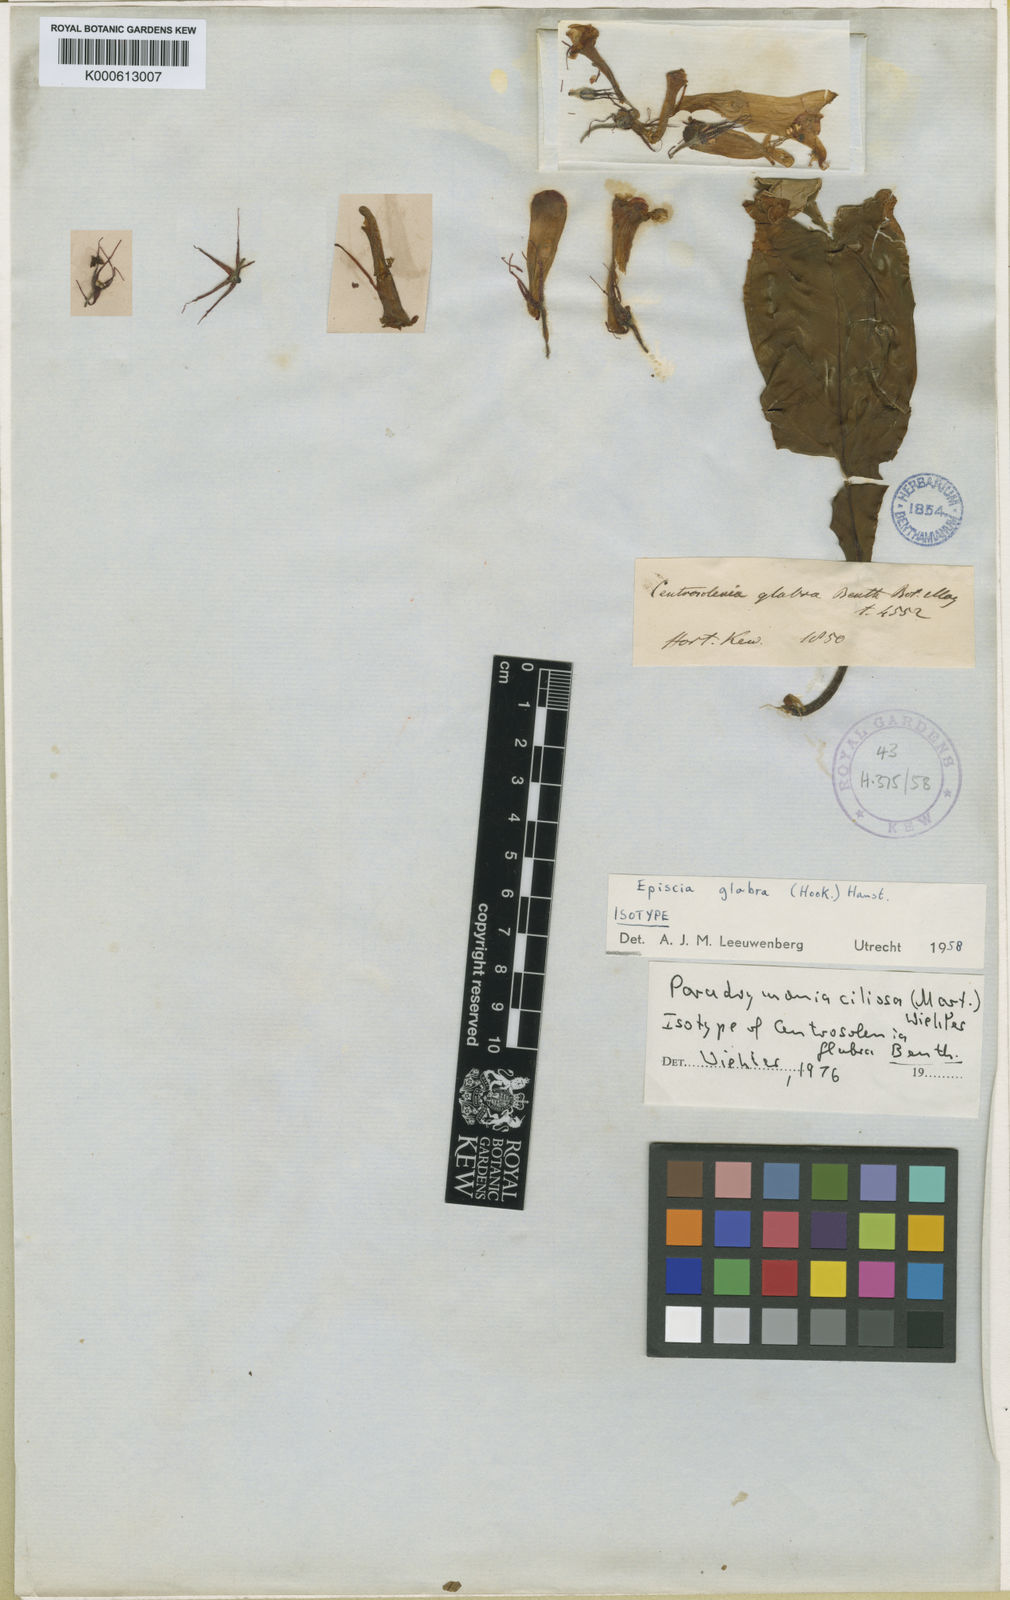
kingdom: Plantae
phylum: Tracheophyta
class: Magnoliopsida
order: Lamiales
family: Gesneriaceae
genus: Paradrymonia
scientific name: Paradrymonia ciliosa
